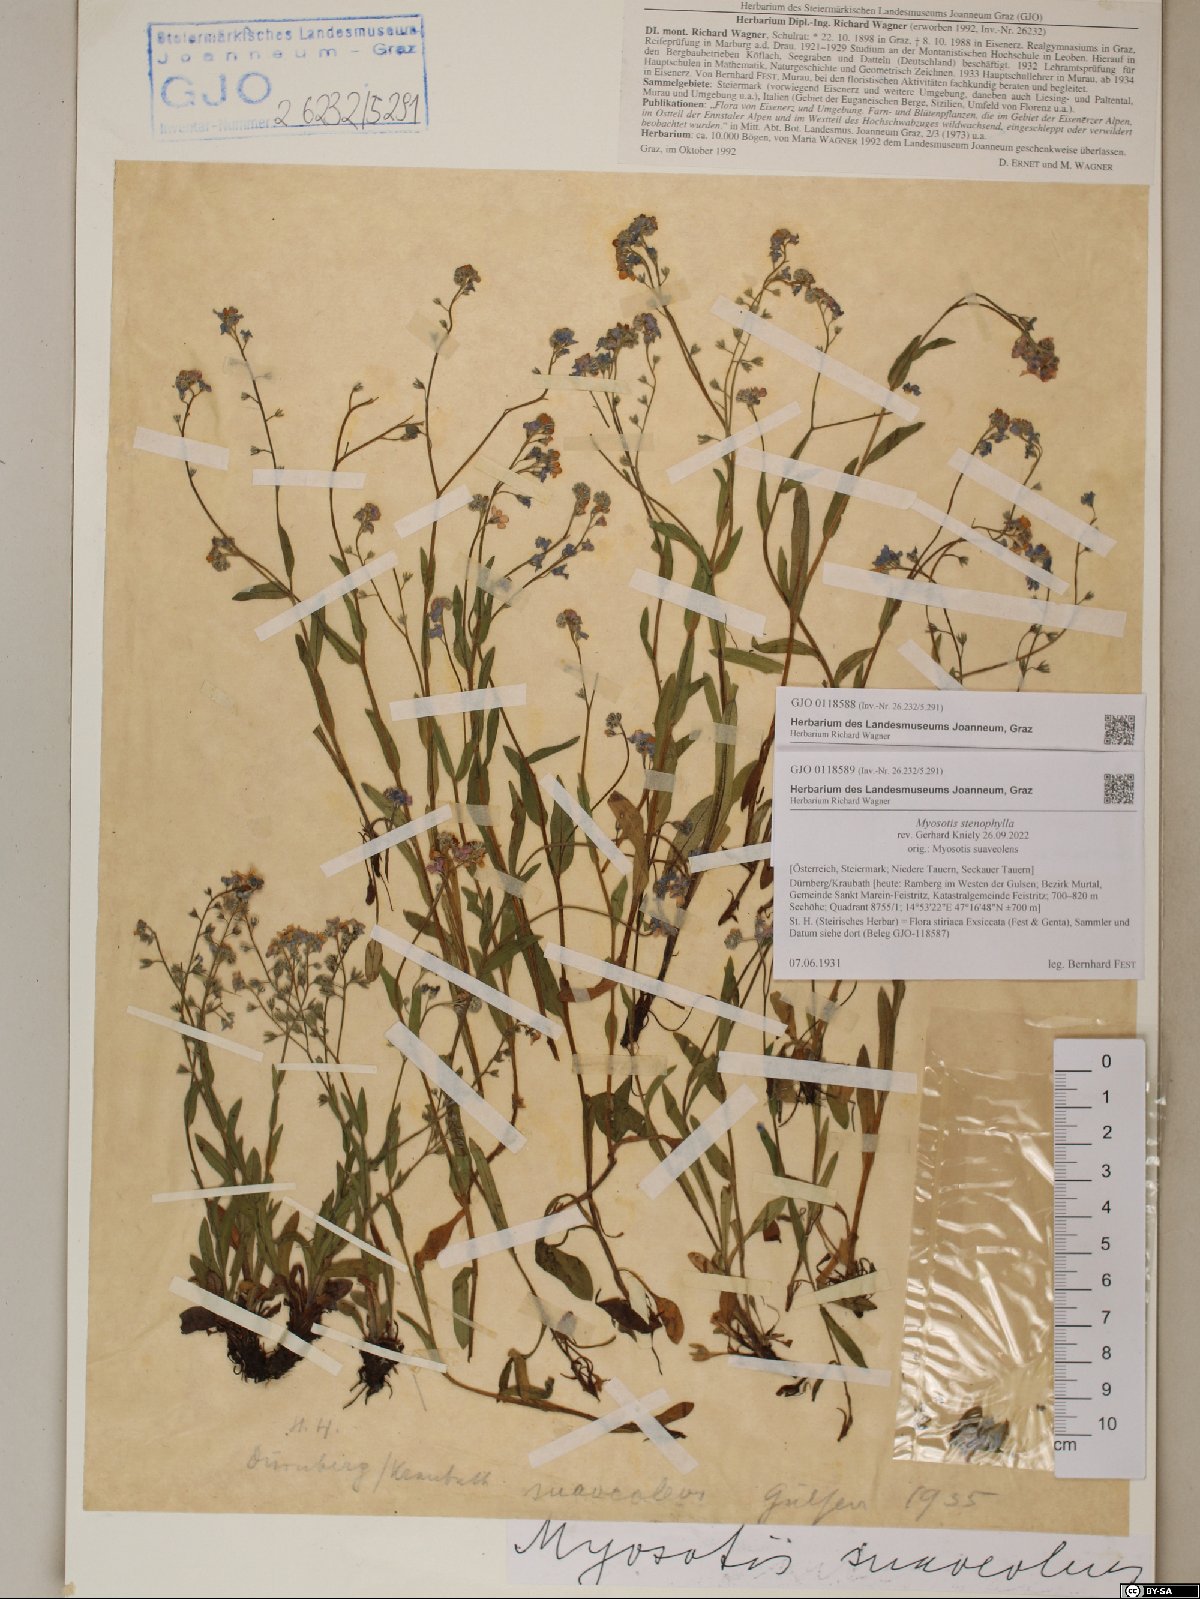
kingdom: Plantae
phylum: Tracheophyta
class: Magnoliopsida
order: Boraginales
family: Boraginaceae
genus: Myosotis
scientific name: Myosotis stenophylla
